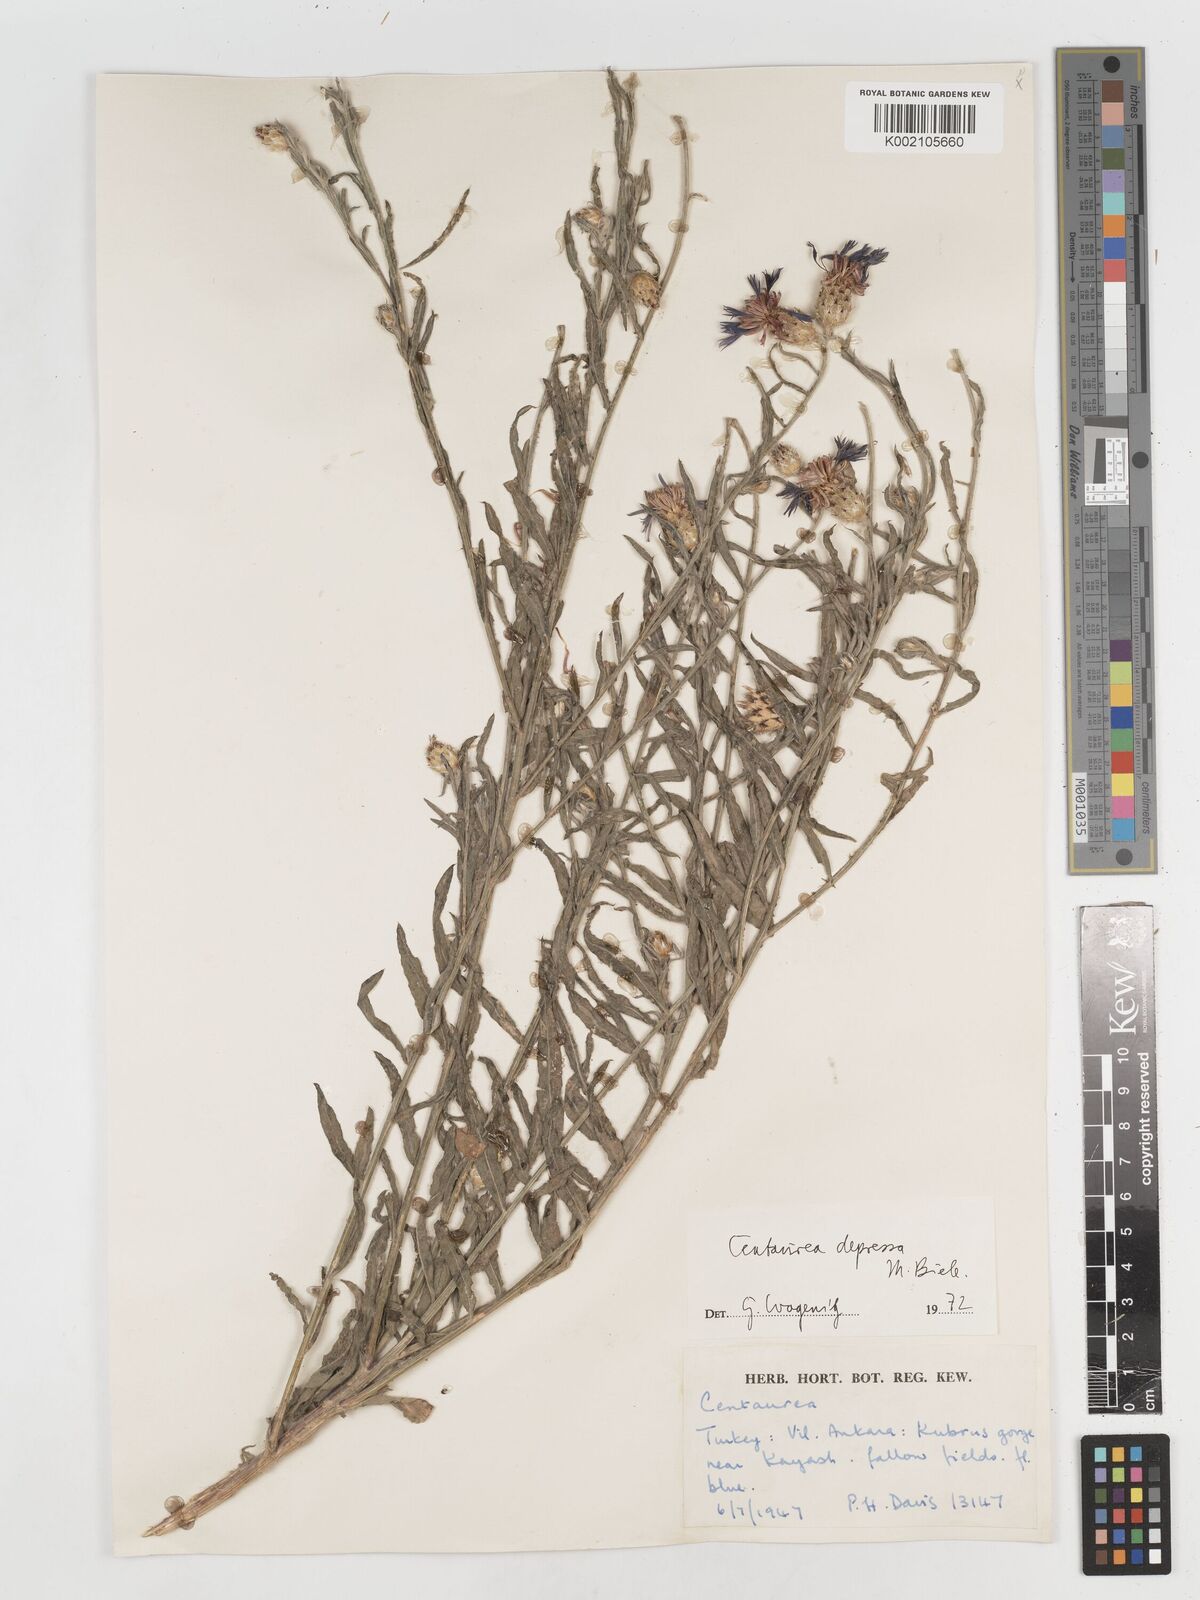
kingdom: Plantae
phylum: Tracheophyta
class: Magnoliopsida
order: Asterales
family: Asteraceae
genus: Centaurea
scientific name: Centaurea depressa
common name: Iranian knapweed
